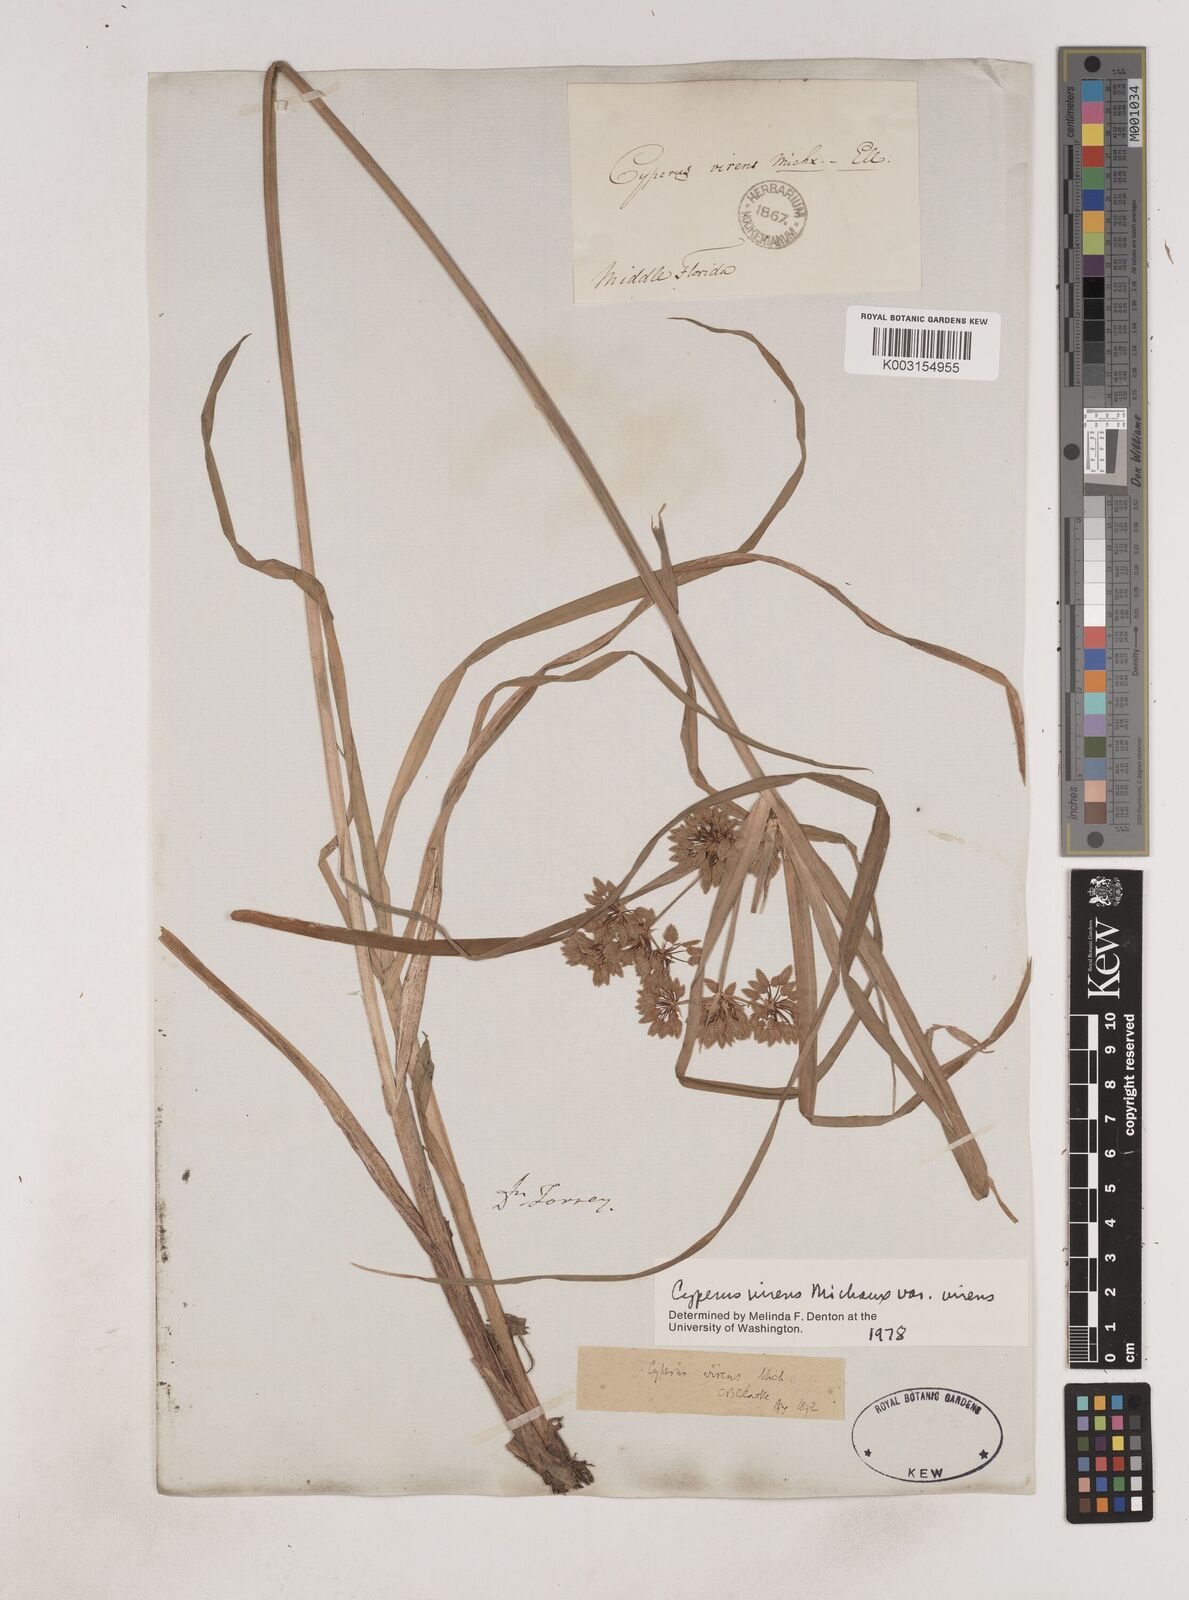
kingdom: Plantae
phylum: Tracheophyta
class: Liliopsida
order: Poales
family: Cyperaceae
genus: Cyperus
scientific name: Cyperus virens
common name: Green flatsedge
